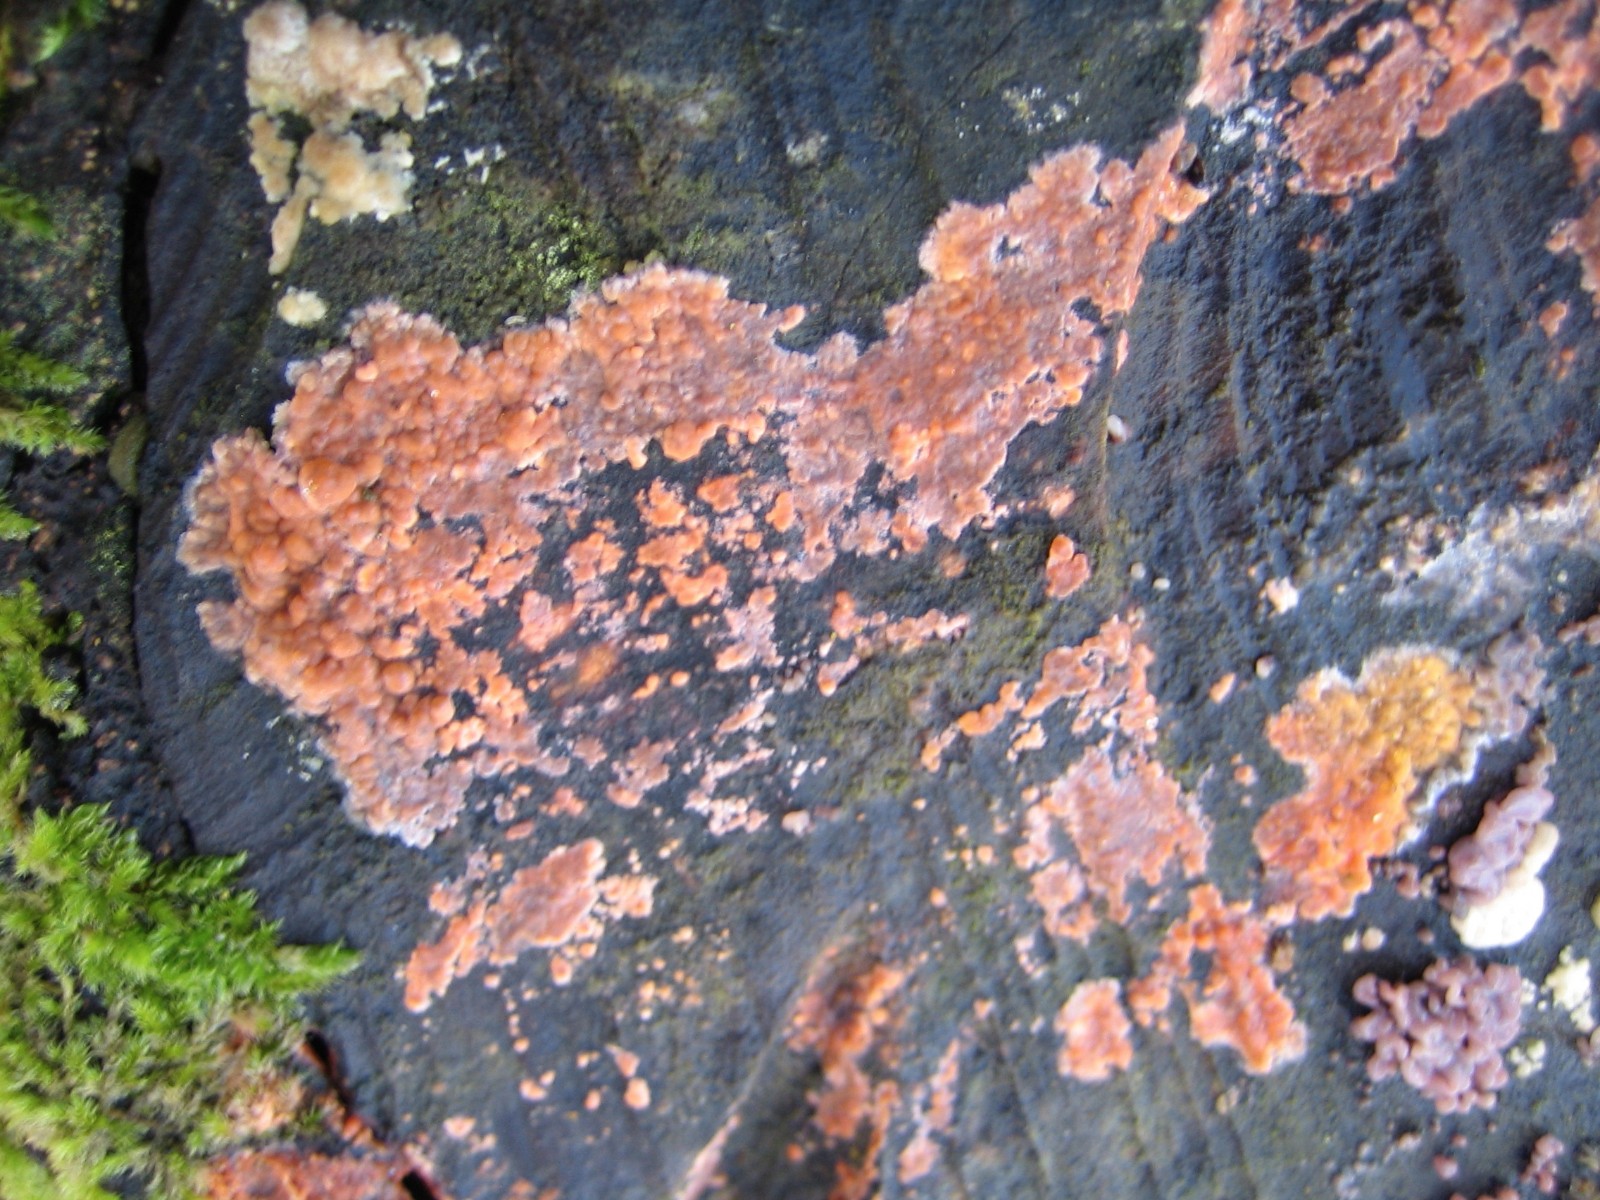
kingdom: Fungi
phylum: Basidiomycota
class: Agaricomycetes
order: Russulales
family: Peniophoraceae
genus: Peniophora
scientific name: Peniophora incarnata
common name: laksefarvet voksskind
